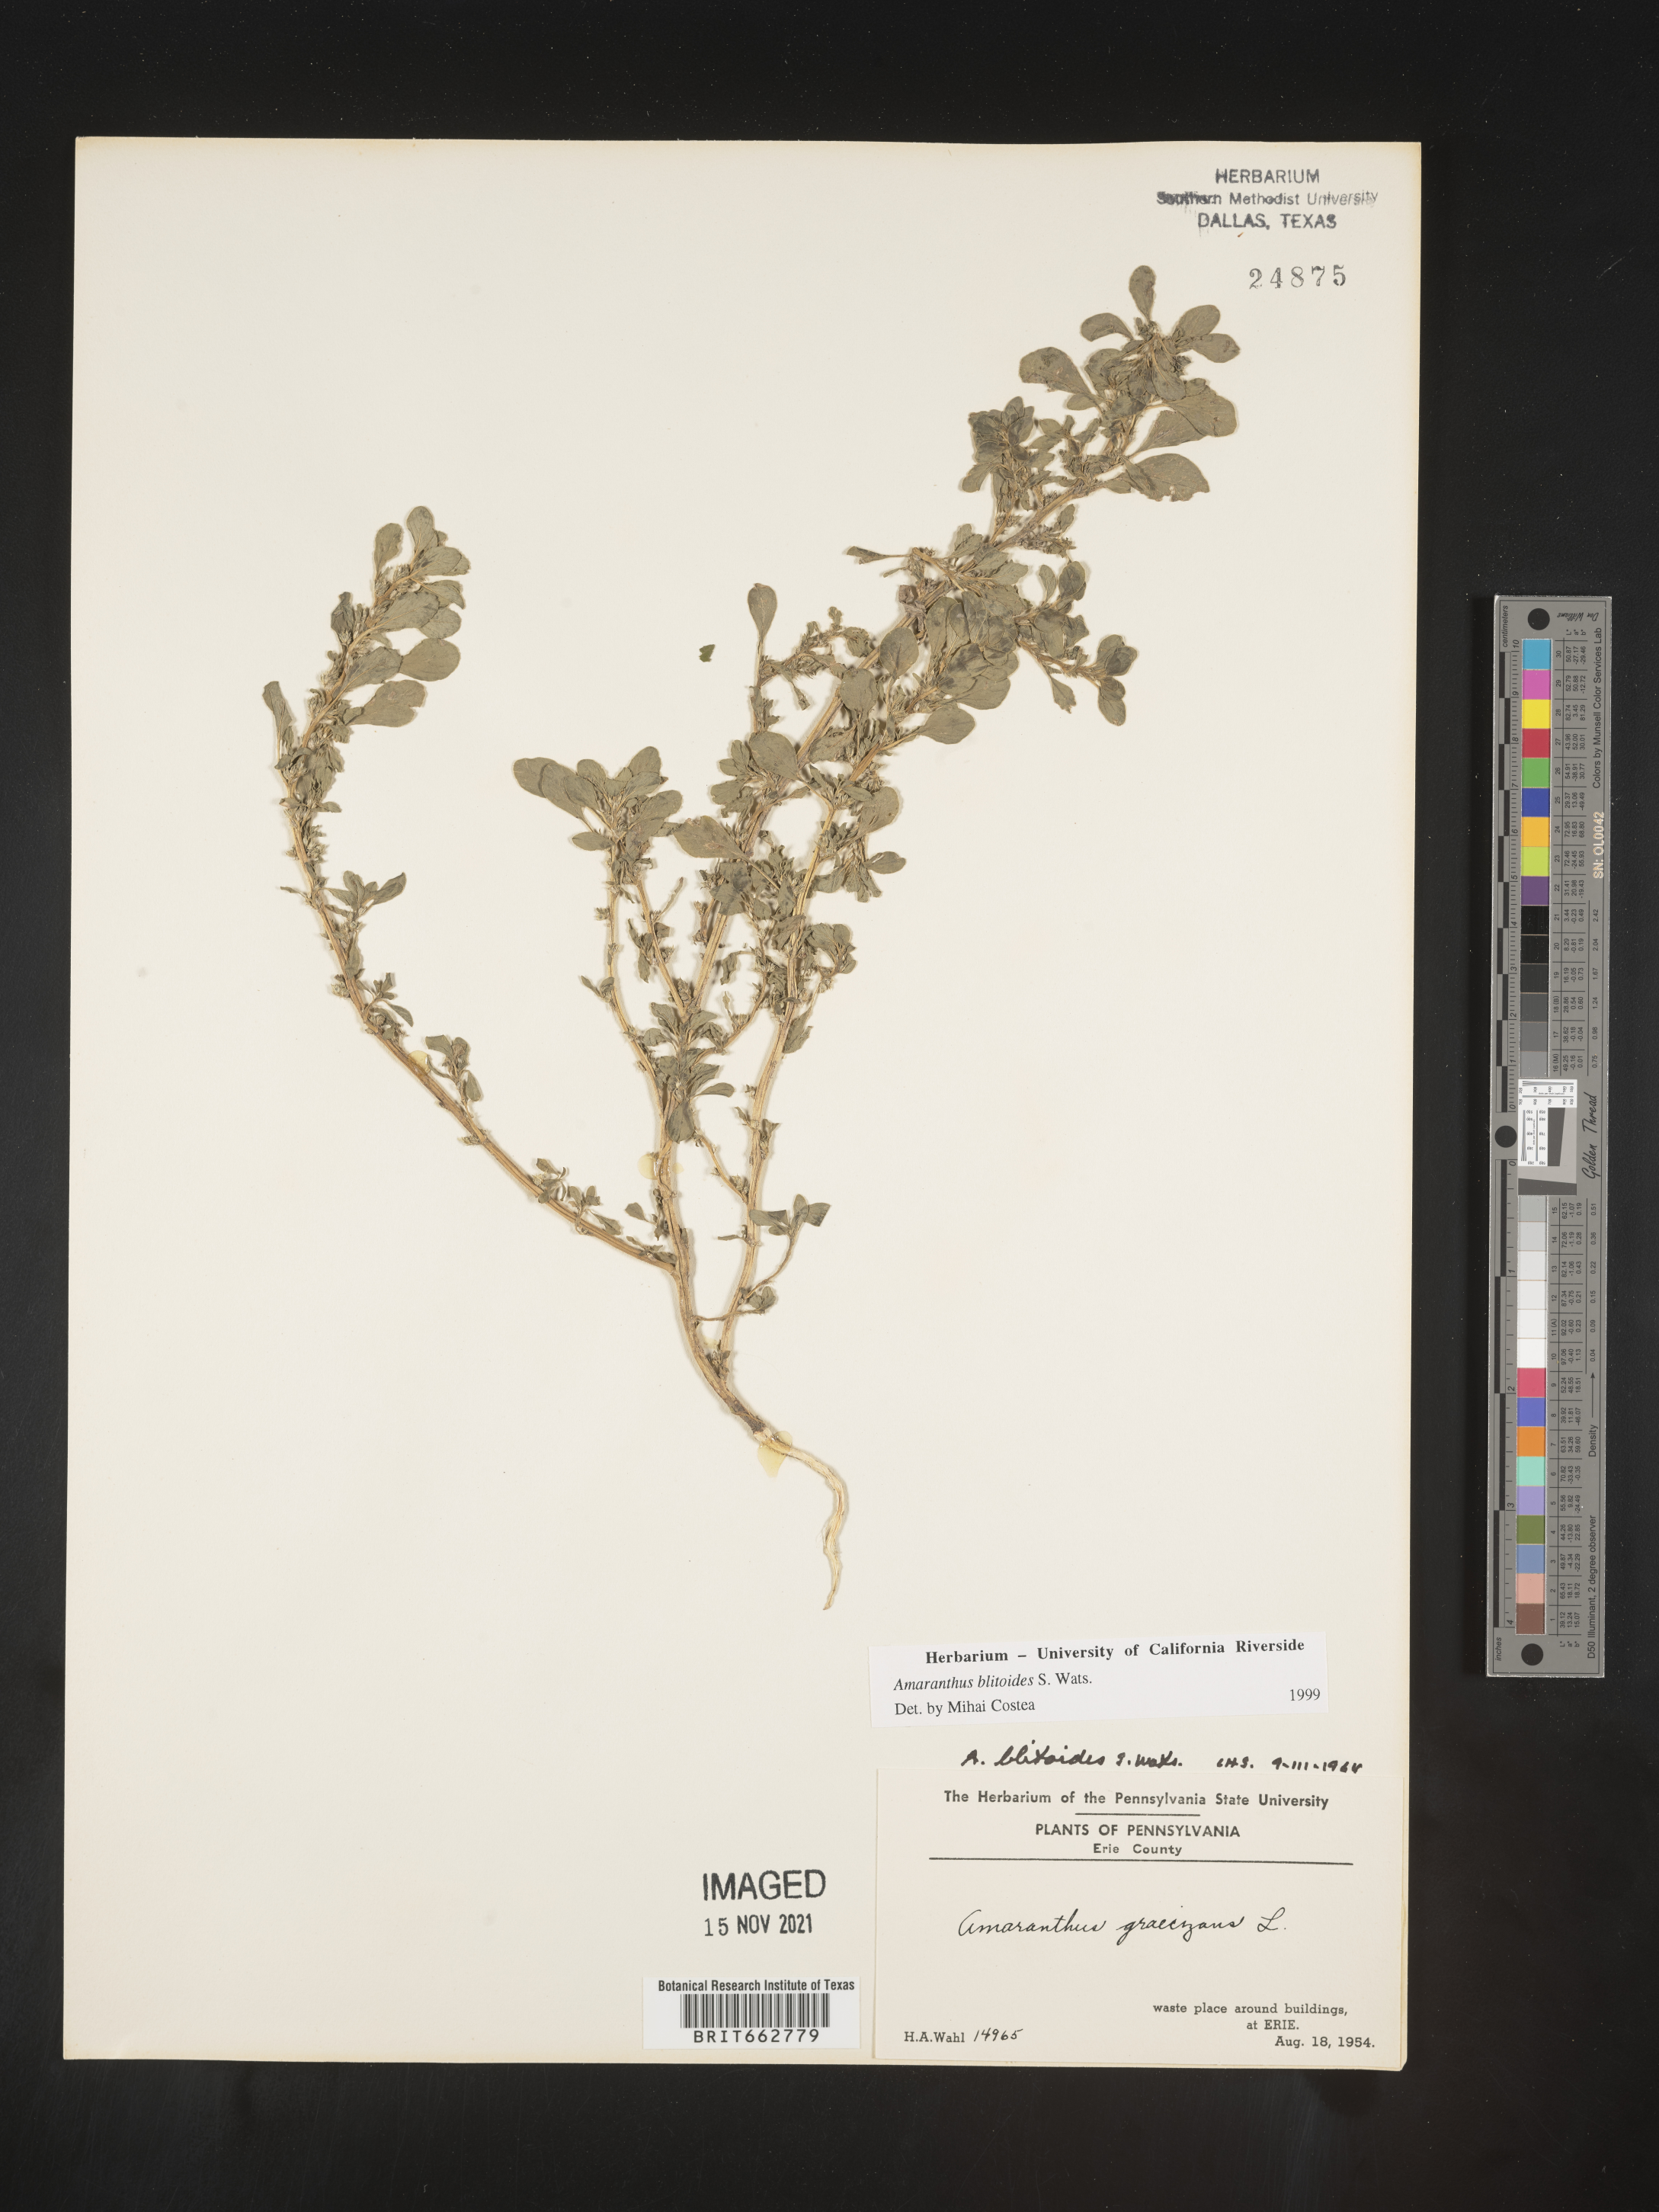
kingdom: Plantae
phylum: Tracheophyta
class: Magnoliopsida
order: Caryophyllales
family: Amaranthaceae
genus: Amaranthus
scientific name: Amaranthus blitoides
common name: Prostrate pigweed
